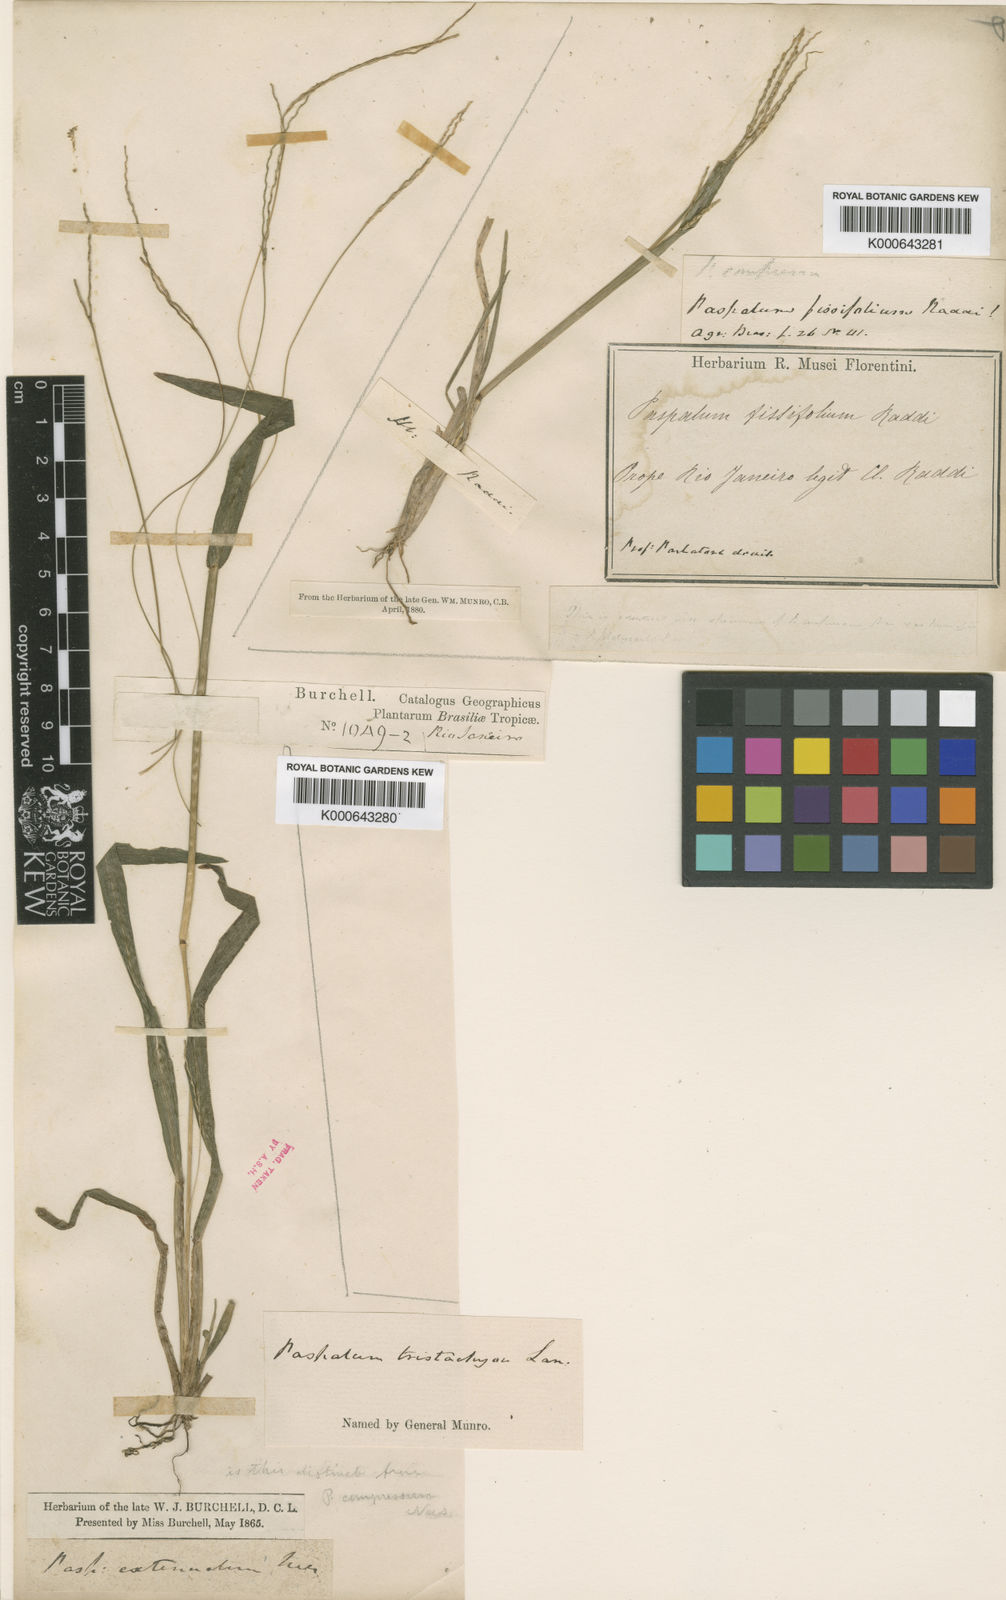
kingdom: Plantae
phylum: Tracheophyta
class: Liliopsida
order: Poales
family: Poaceae
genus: Axonopus
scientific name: Axonopus fissifolius
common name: Common carpetgrass
